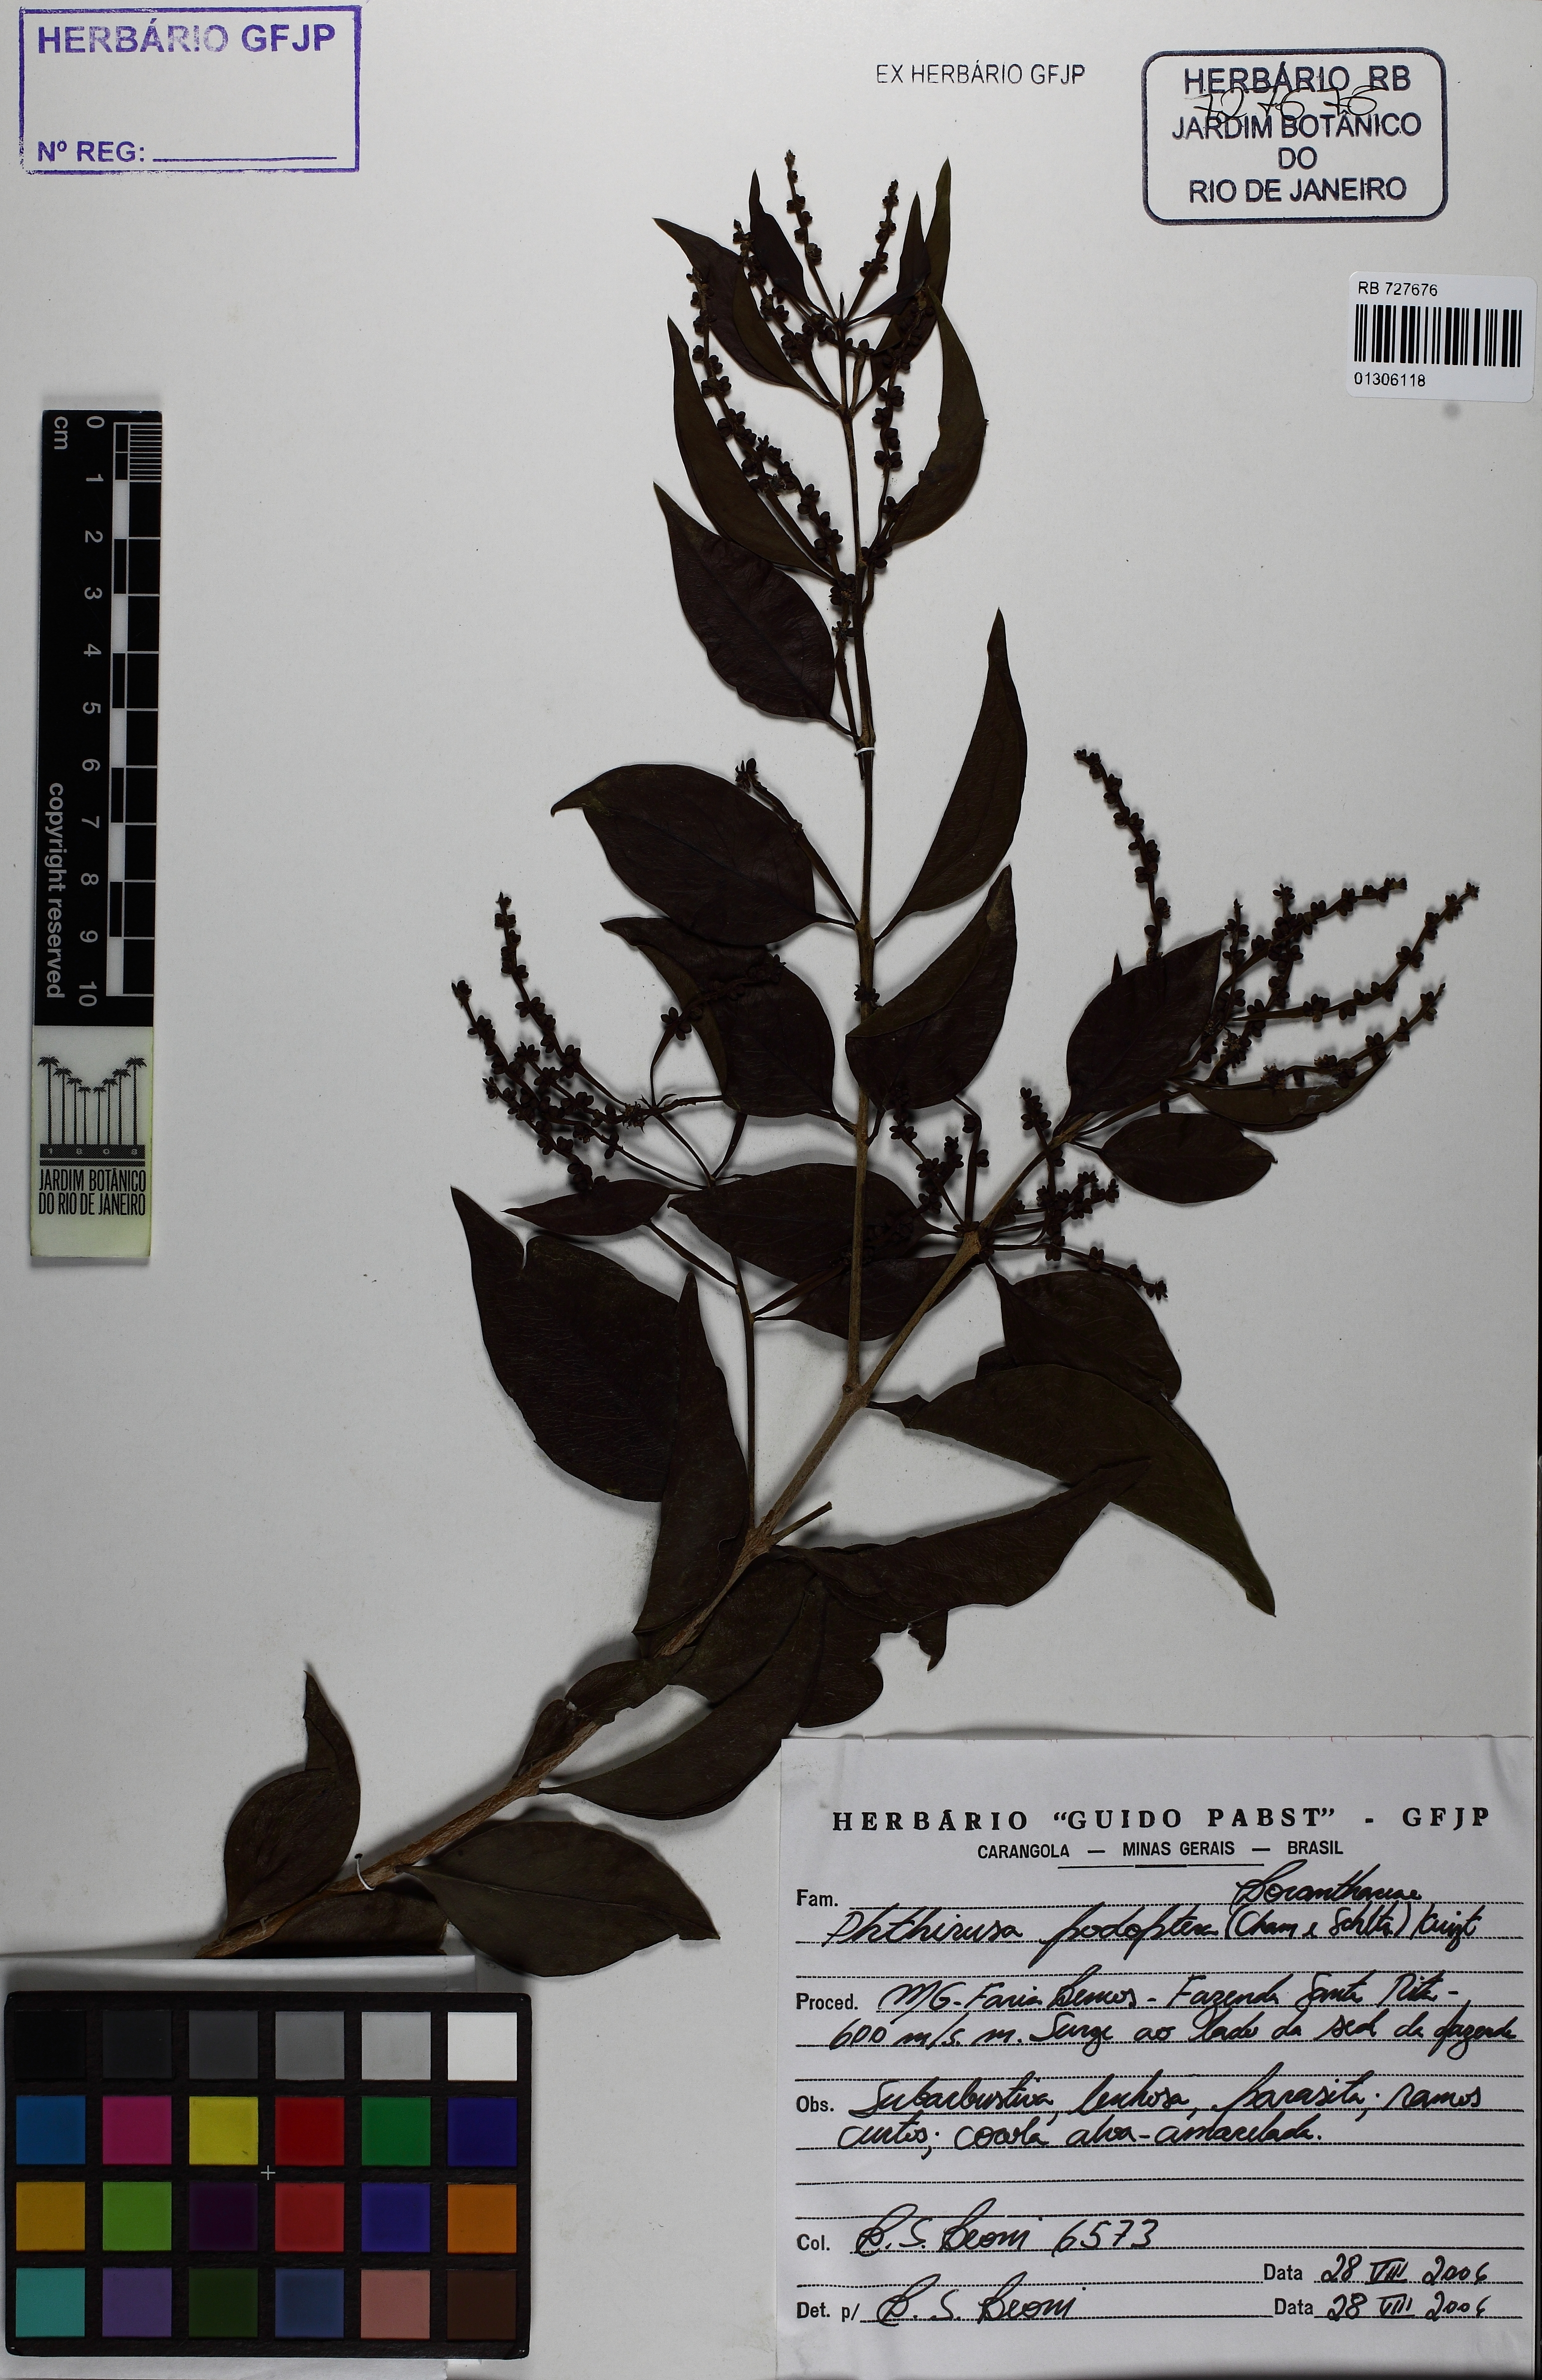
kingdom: Plantae
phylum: Tracheophyta
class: Magnoliopsida
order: Santalales
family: Loranthaceae
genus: Passovia
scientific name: Passovia podoptera
